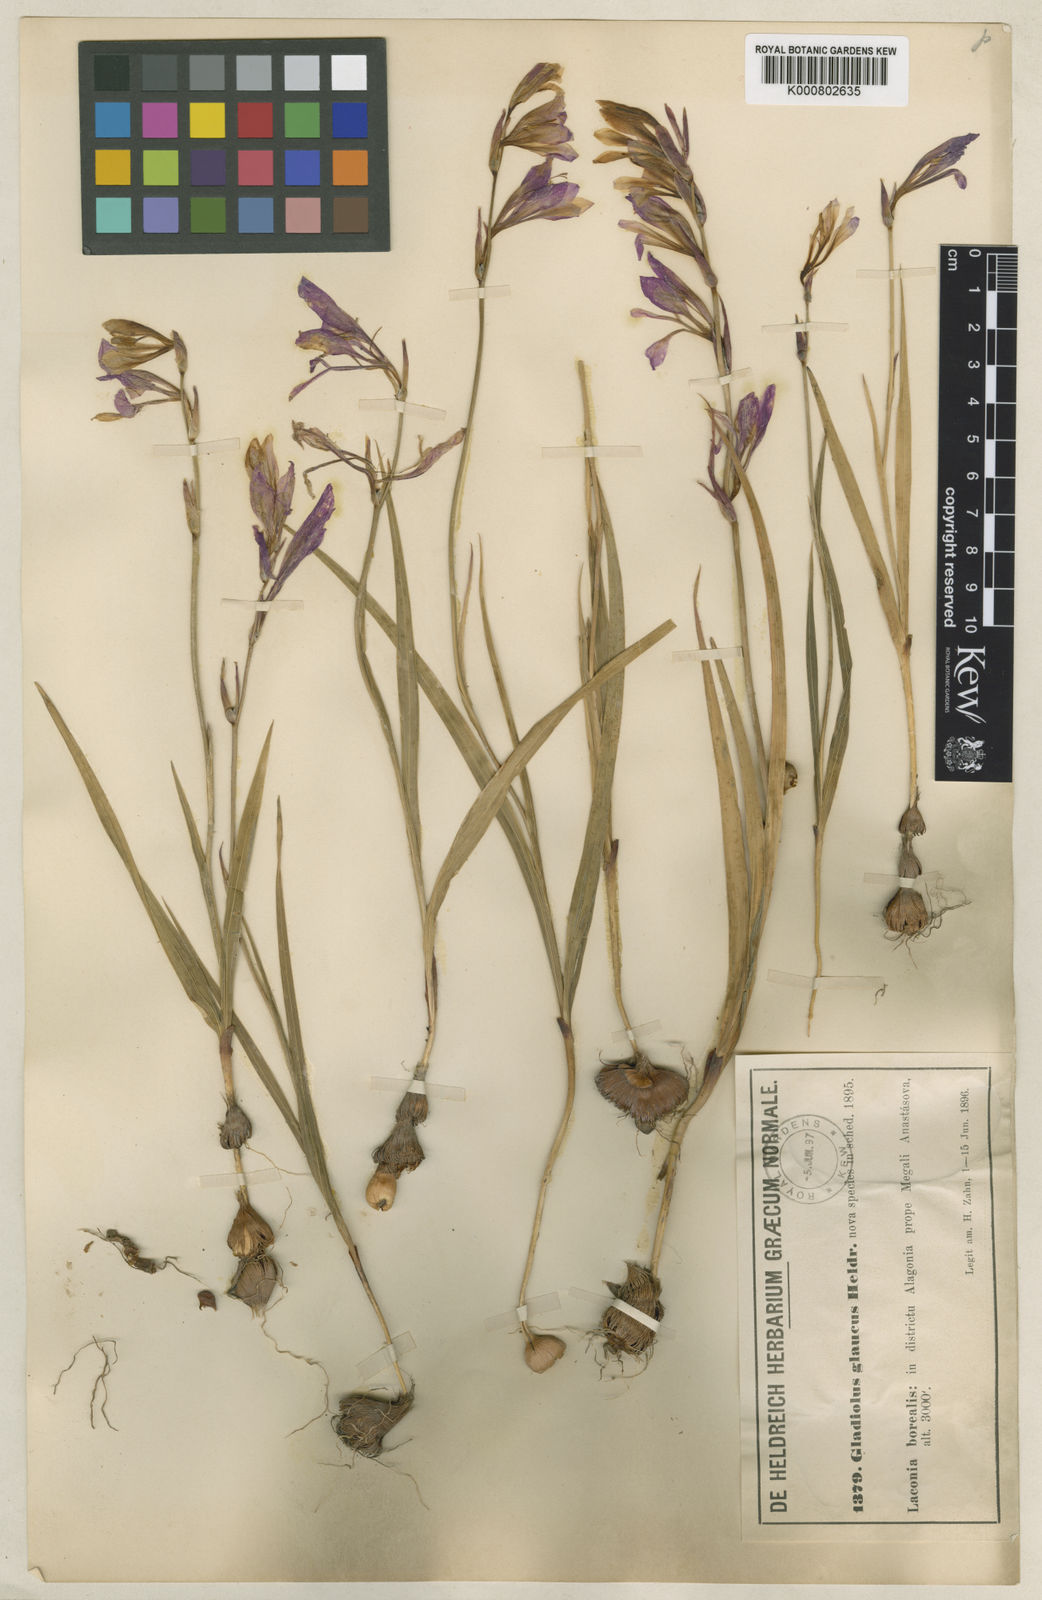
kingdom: Plantae
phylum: Tracheophyta
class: Liliopsida
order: Asparagales
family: Iridaceae
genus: Gladiolus
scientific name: Gladiolus
